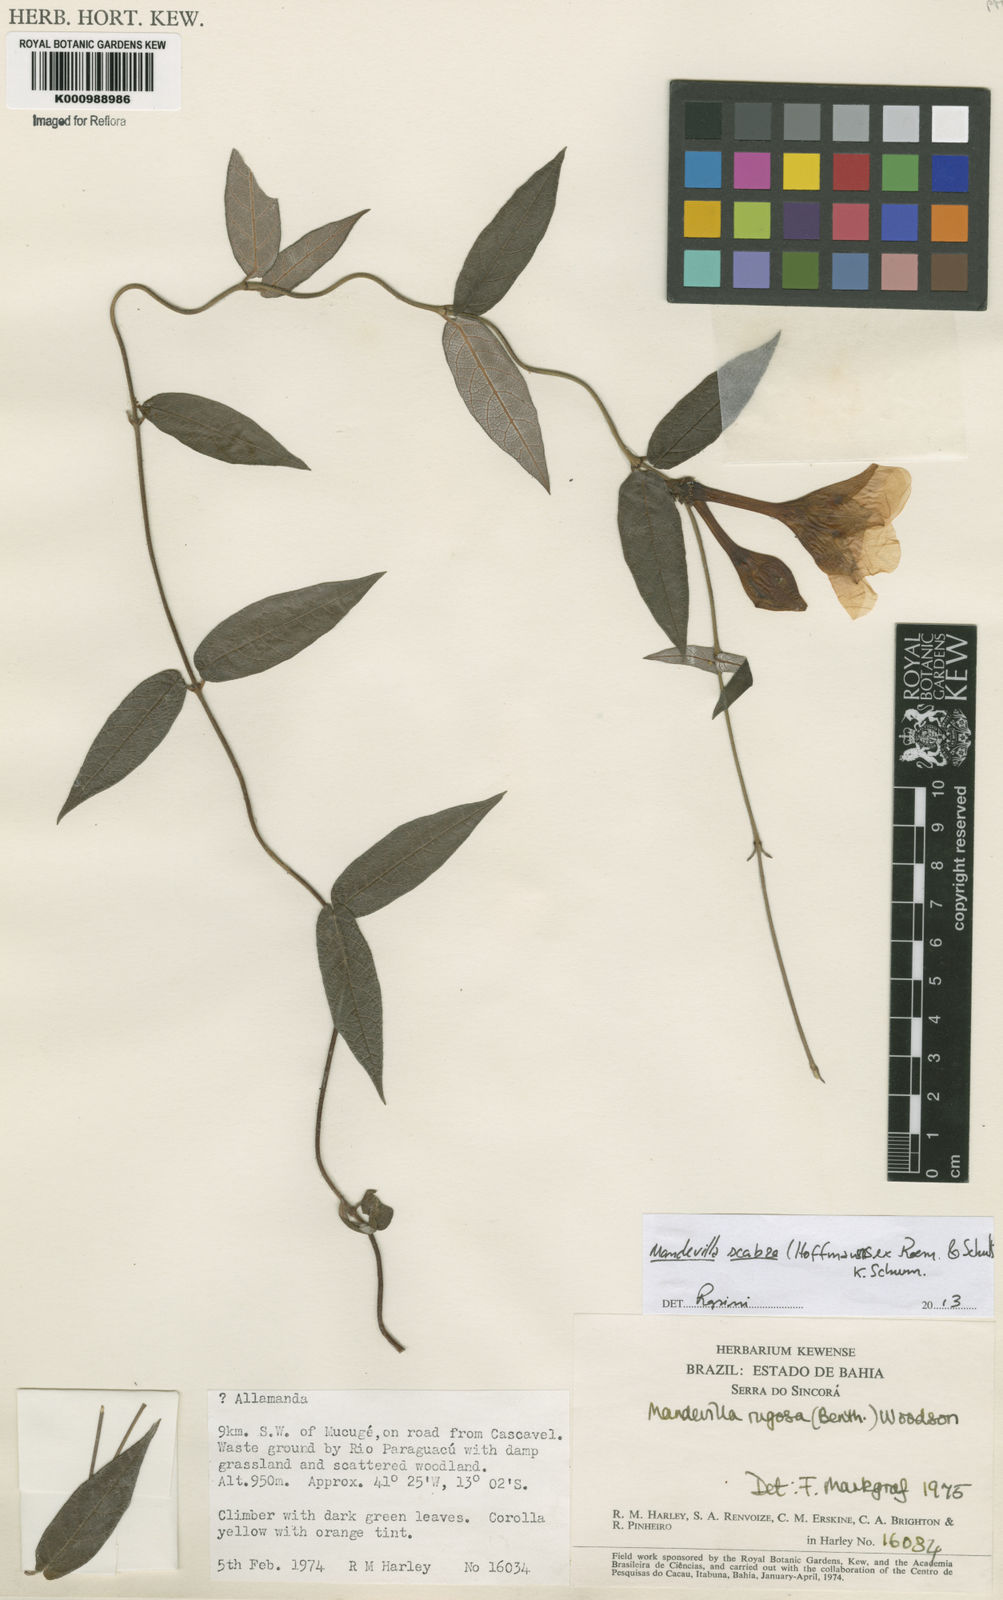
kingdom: Plantae
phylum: Tracheophyta
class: Magnoliopsida
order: Gentianales
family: Apocynaceae
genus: Mandevilla
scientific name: Mandevilla rugosa
